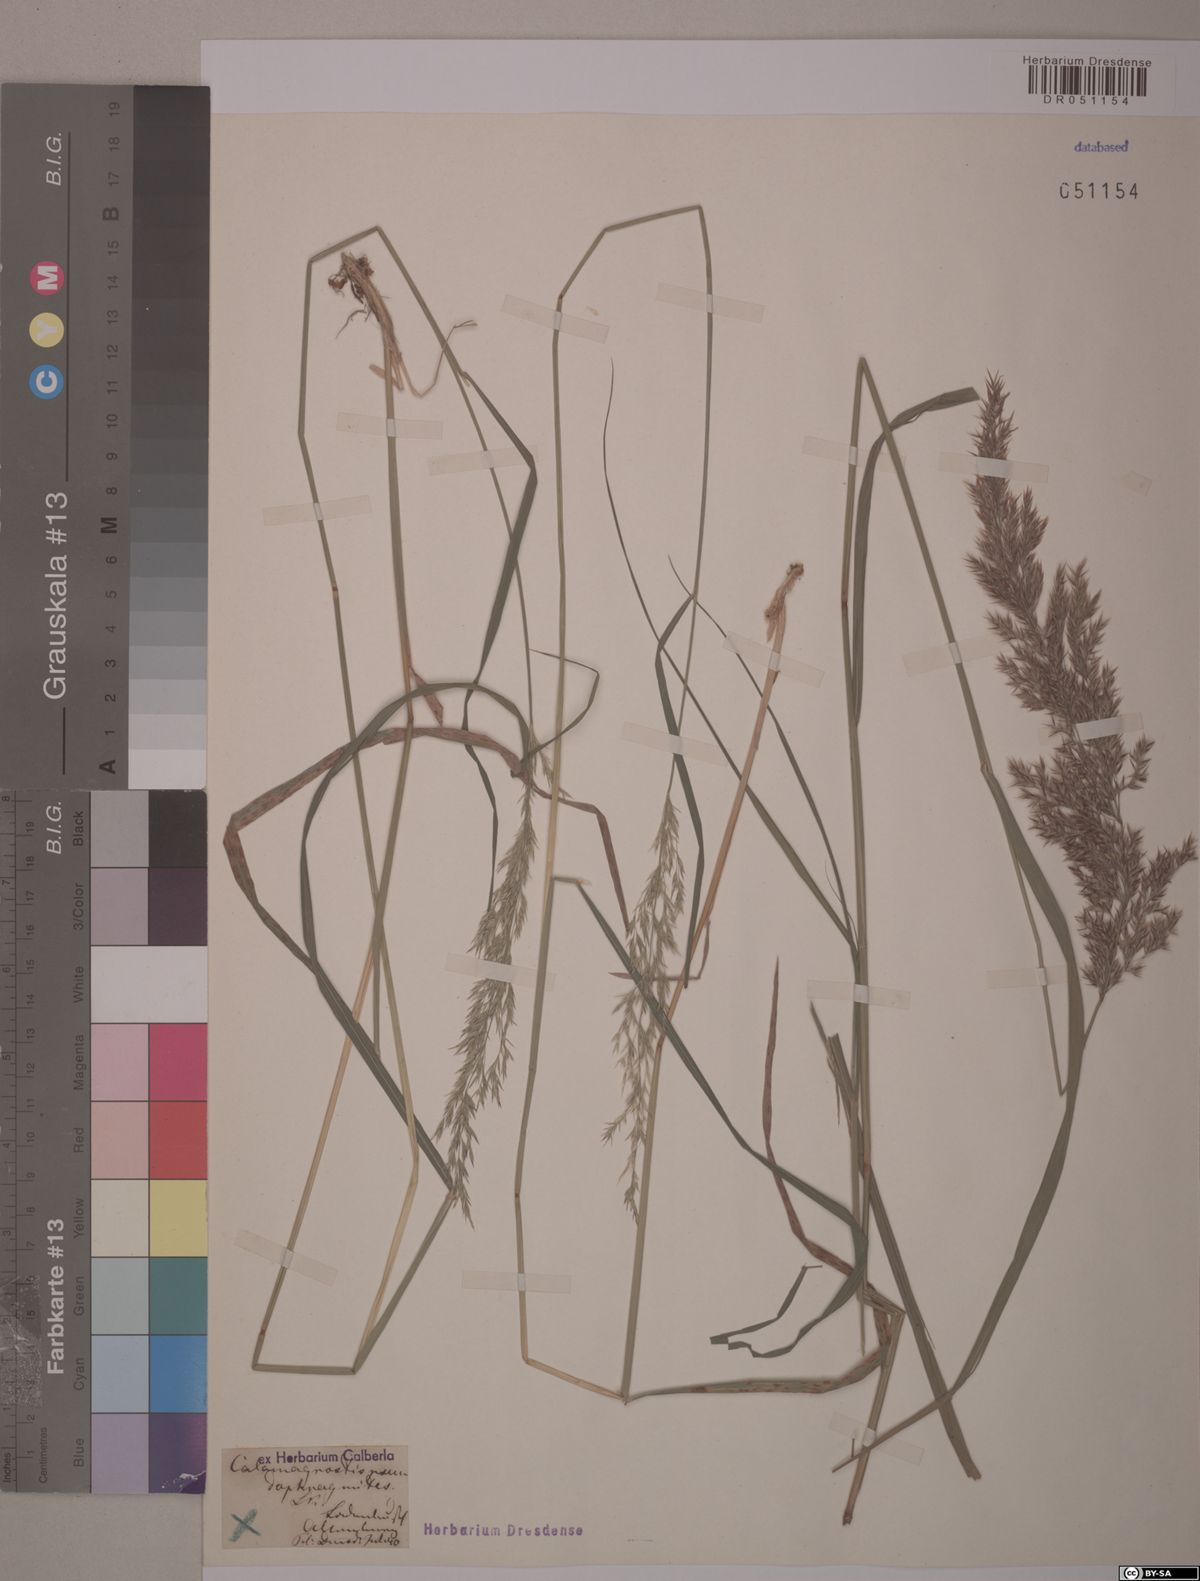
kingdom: Plantae
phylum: Tracheophyta
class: Liliopsida
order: Poales
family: Poaceae
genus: Calamagrostis
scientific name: Calamagrostis villosa
